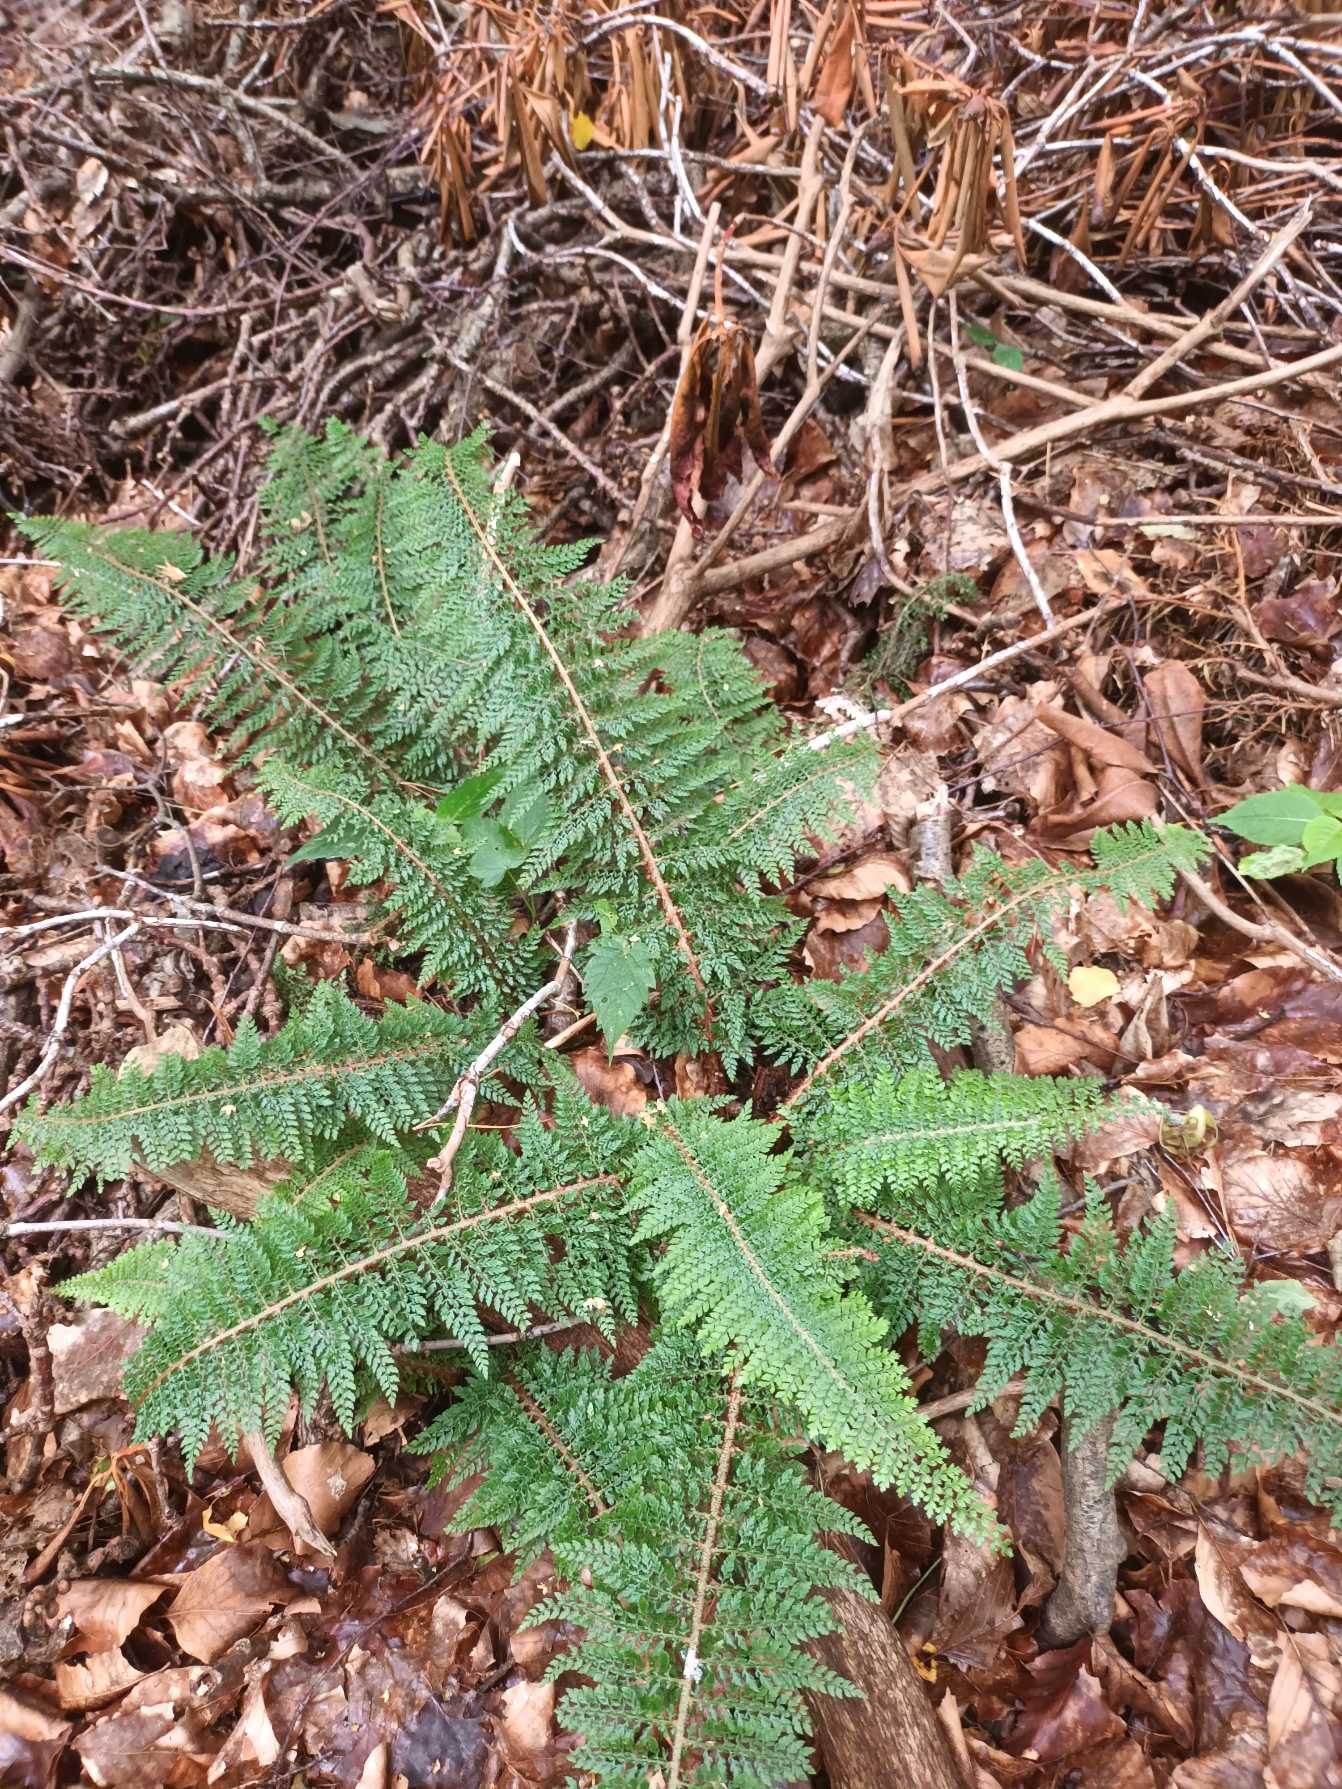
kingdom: Plantae
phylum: Tracheophyta
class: Polypodiopsida
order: Polypodiales
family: Dryopteridaceae
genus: Polystichum
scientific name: Polystichum setiferum
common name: Børste-skjoldbregne
